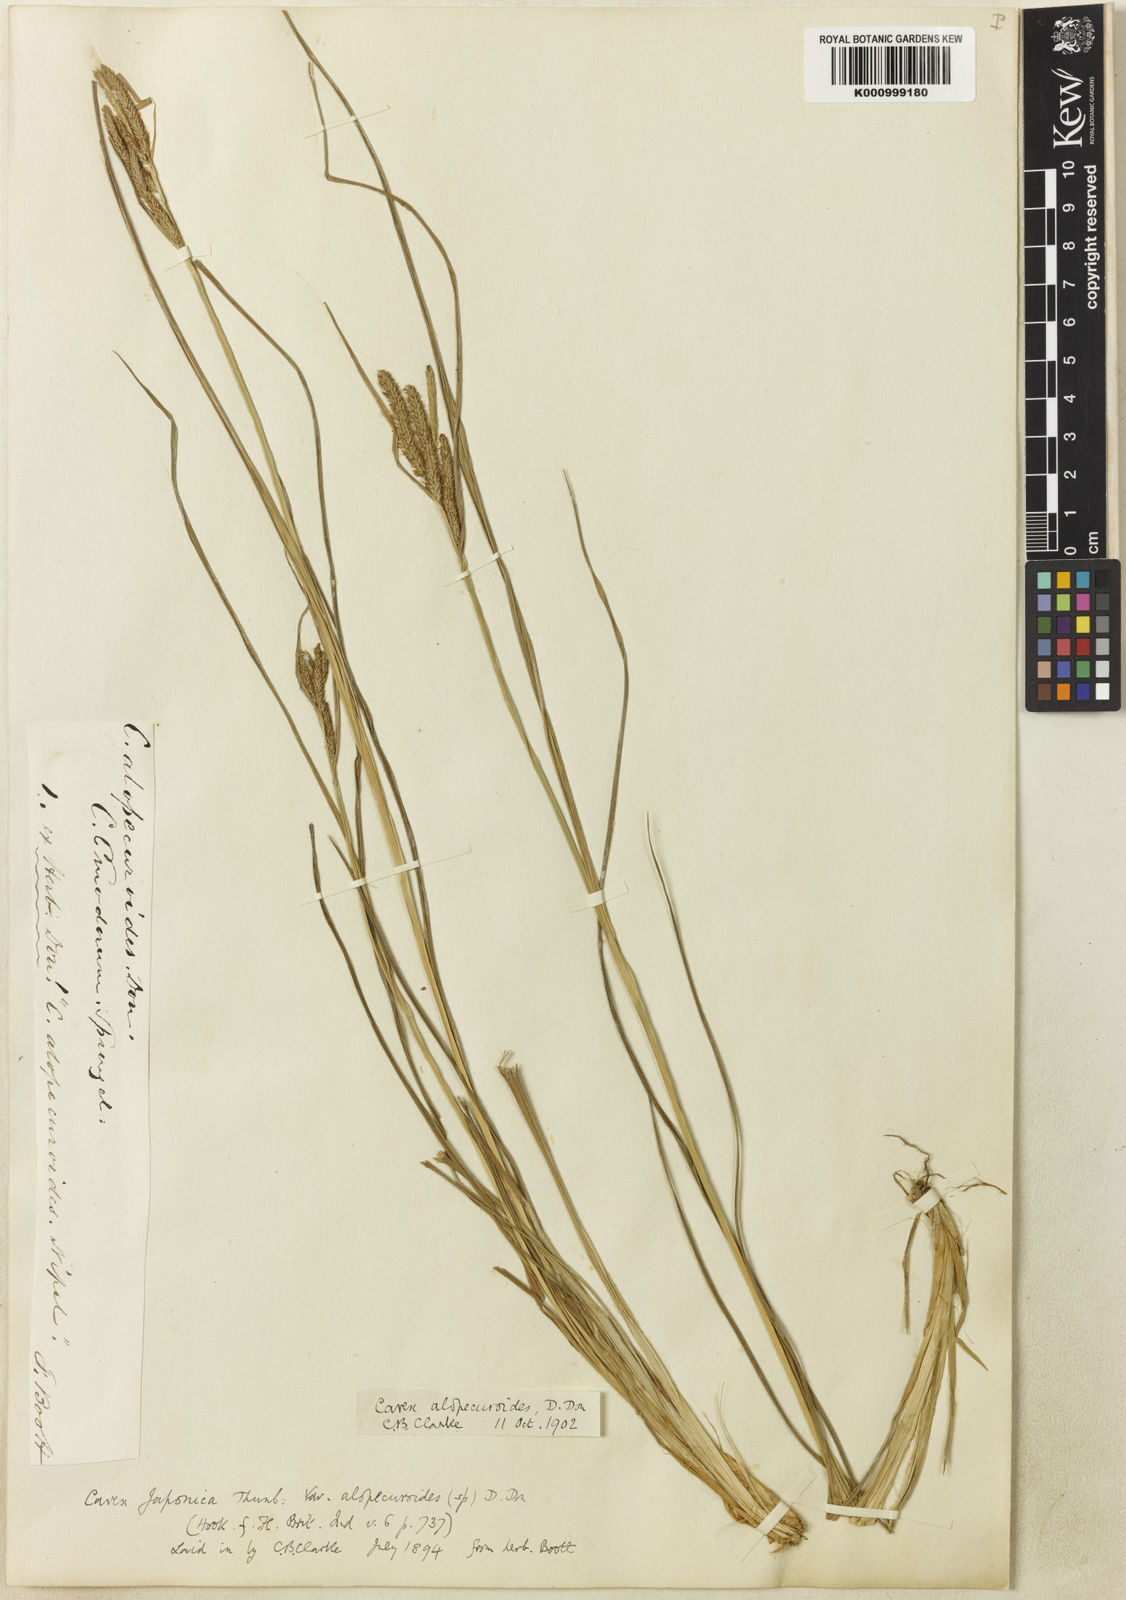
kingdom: Plantae
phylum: Tracheophyta
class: Liliopsida
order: Poales
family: Cyperaceae
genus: Carex
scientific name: Carex alopecuroides
